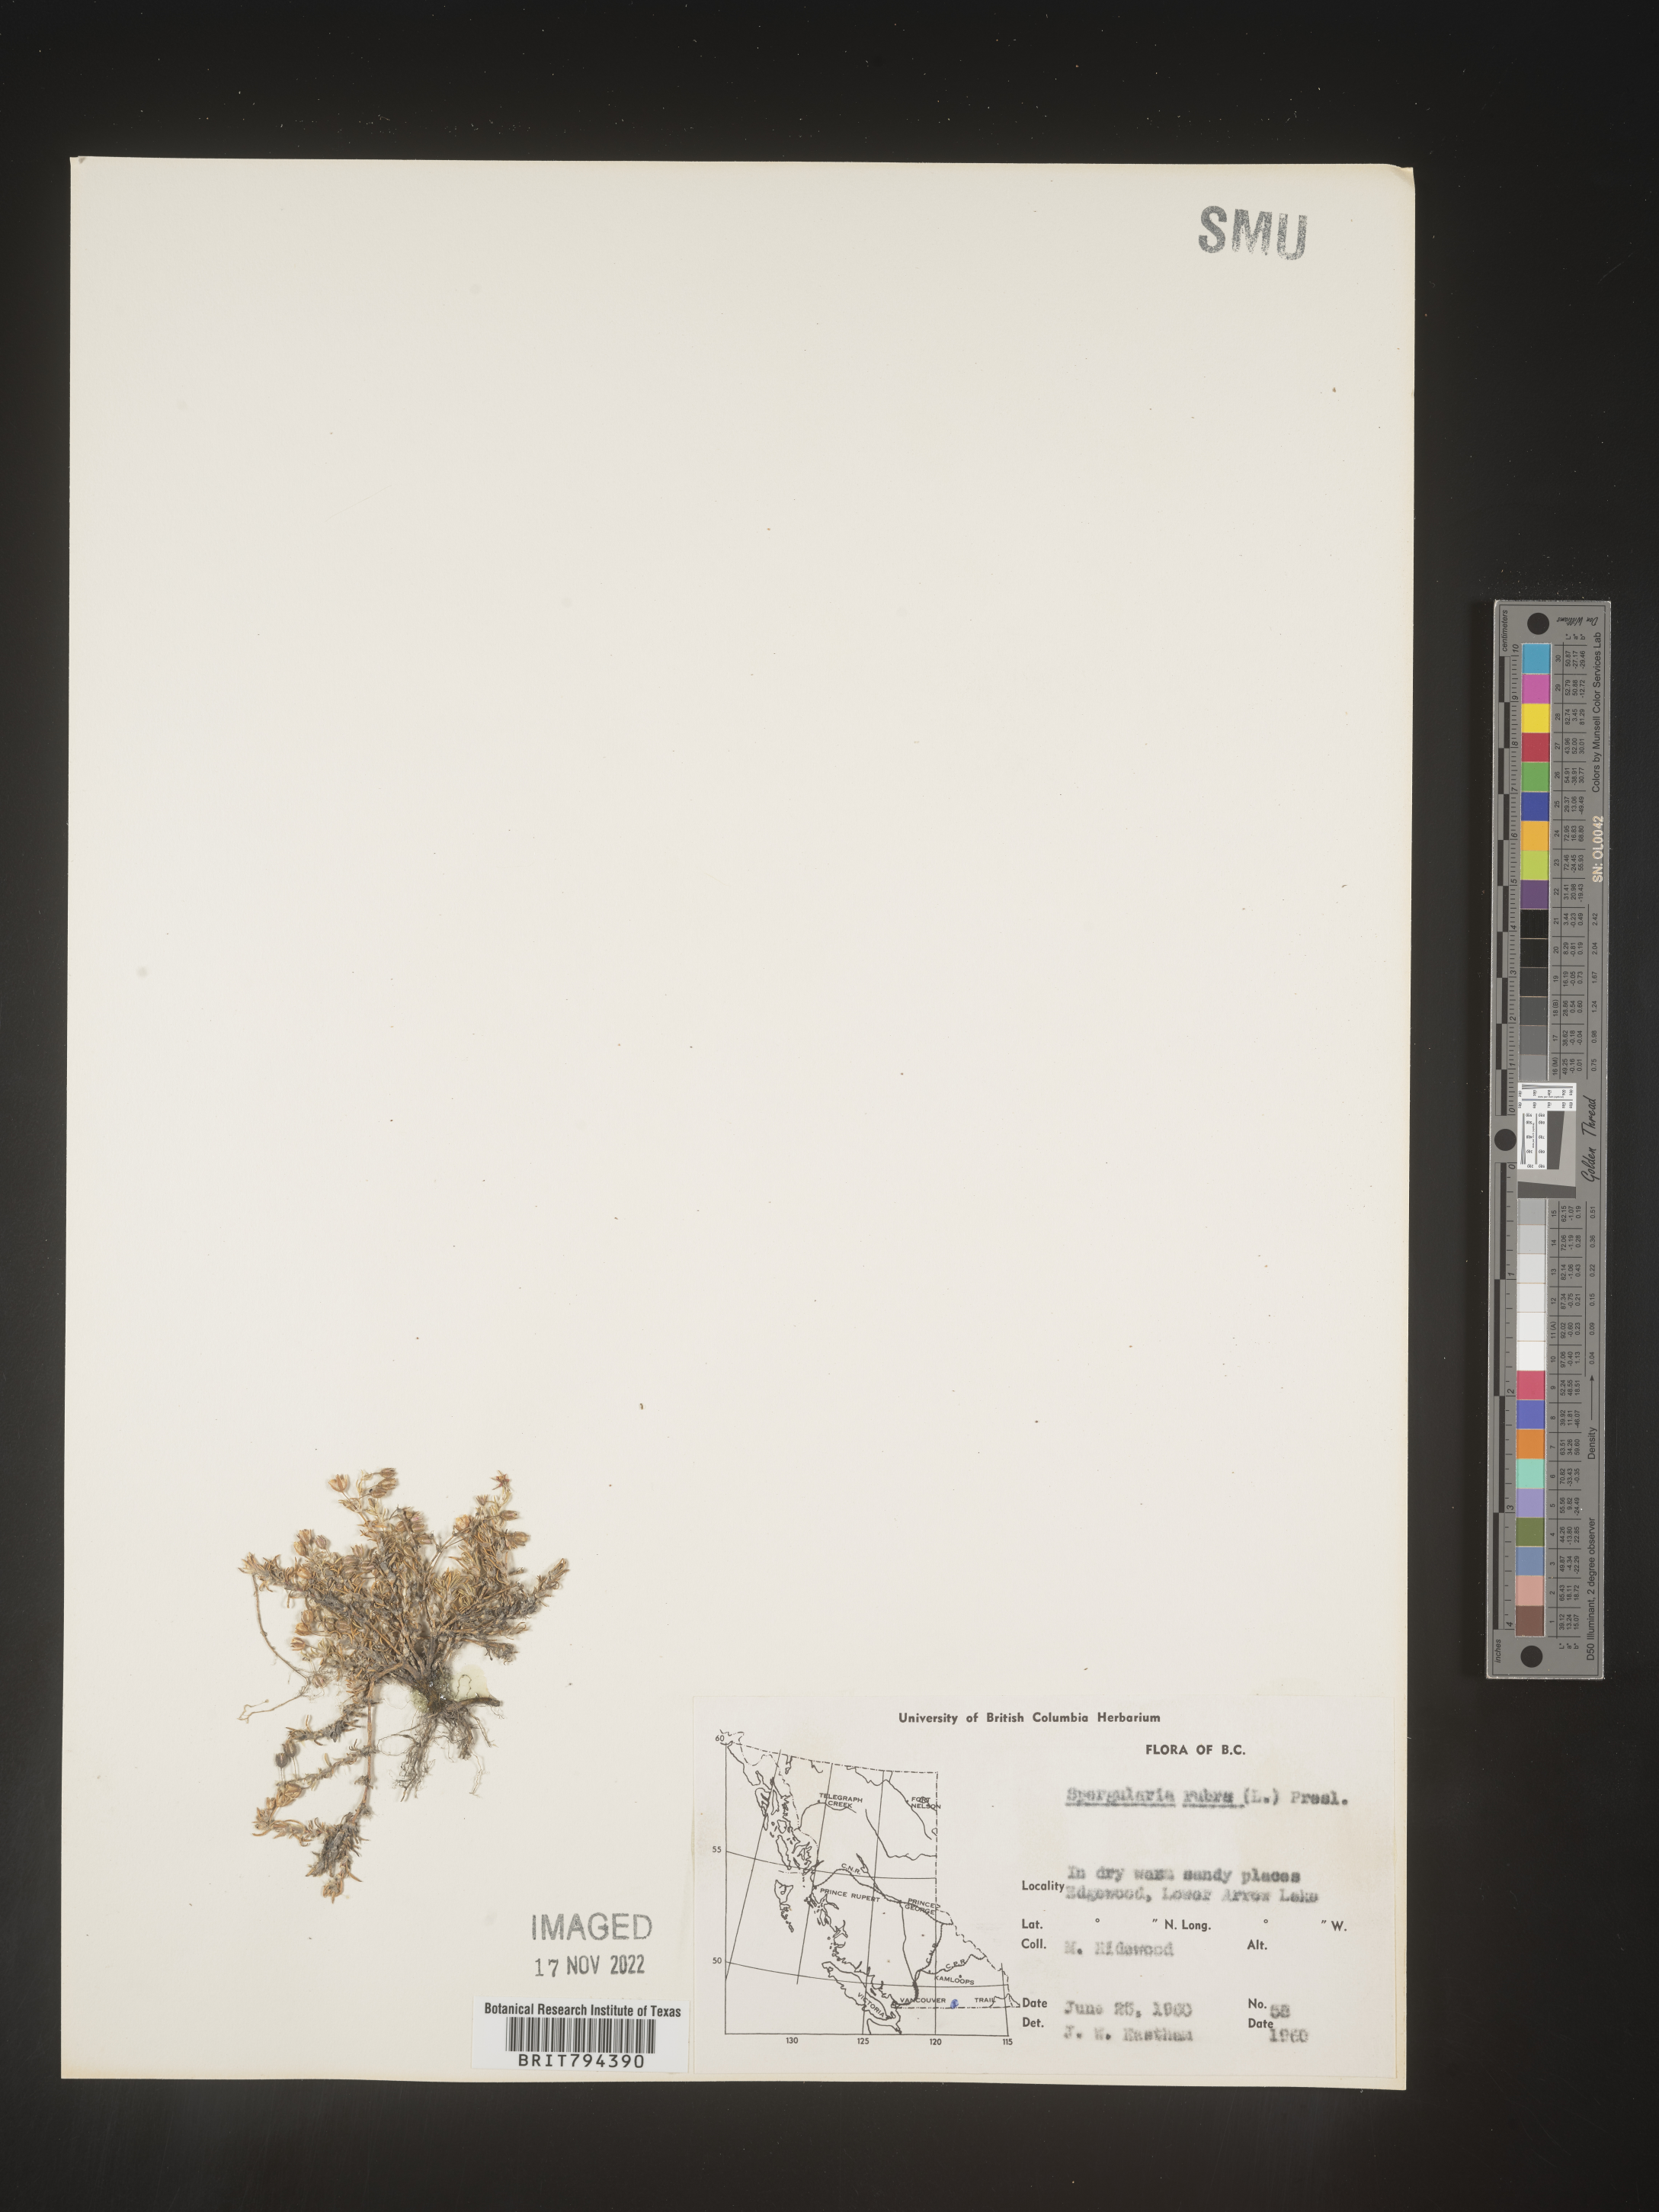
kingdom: Plantae
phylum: Tracheophyta
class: Magnoliopsida
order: Caryophyllales
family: Caryophyllaceae
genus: Spergularia
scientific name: Spergularia rubra
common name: Red sand-spurrey
